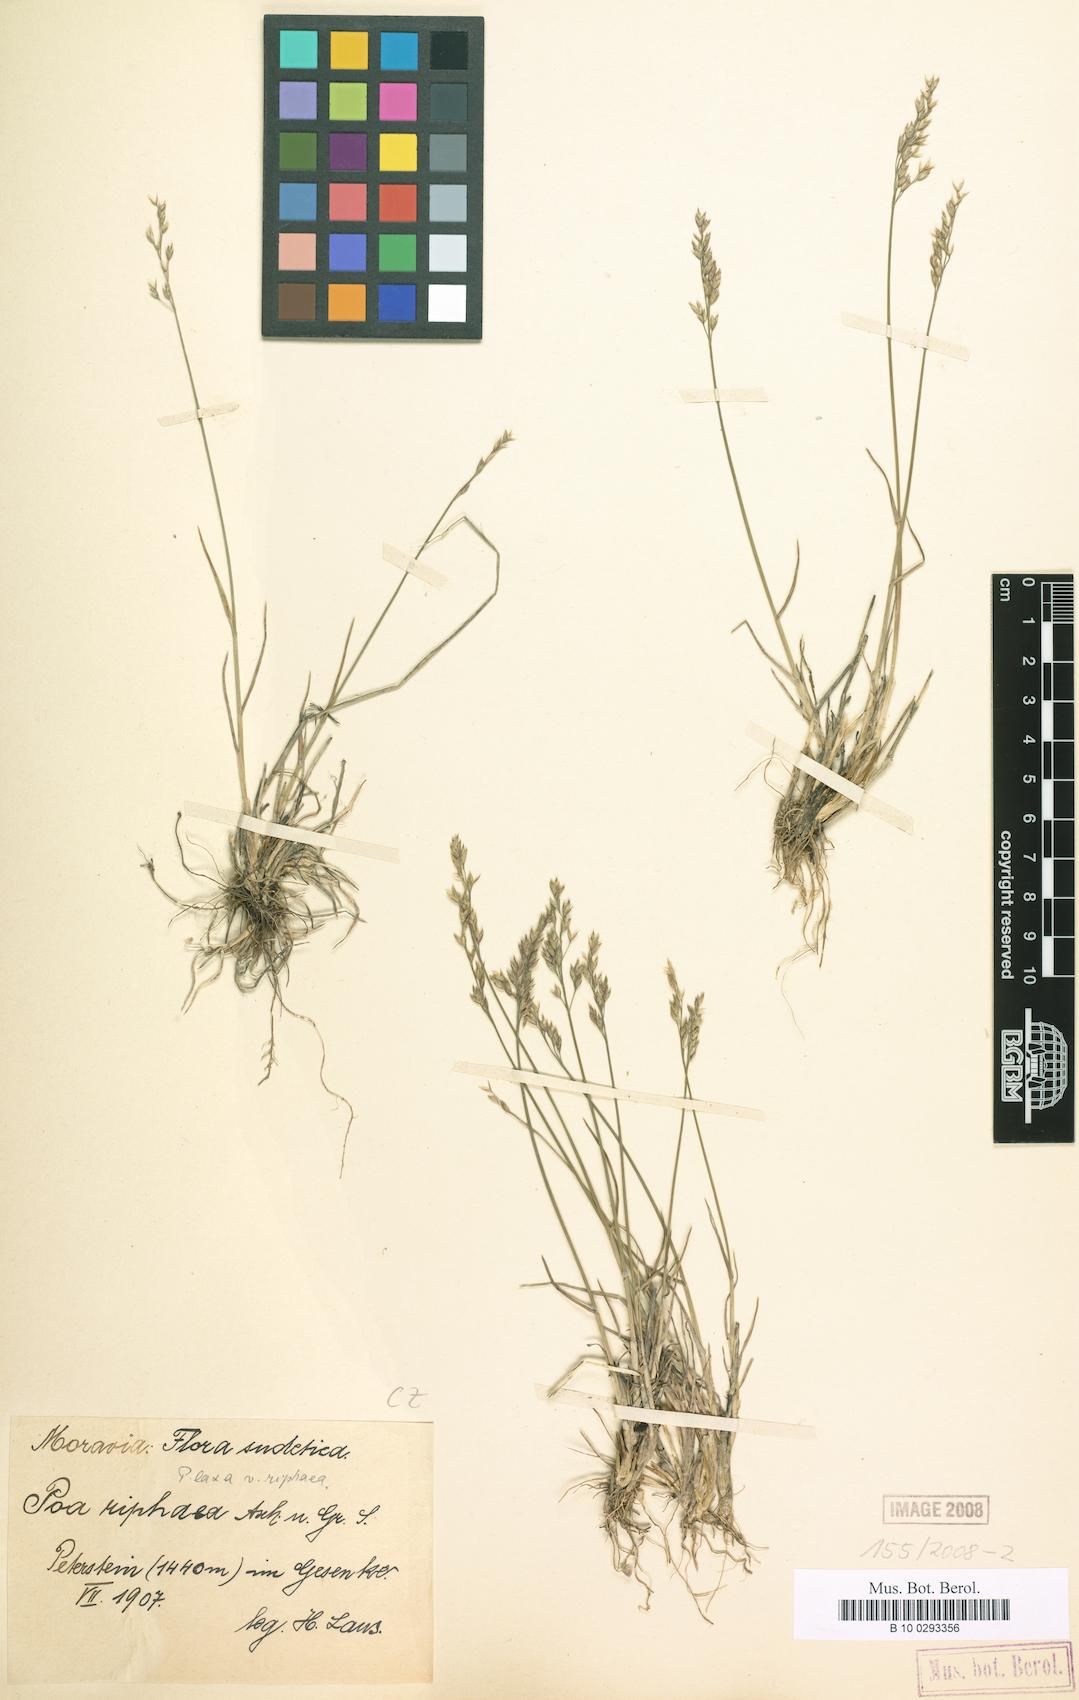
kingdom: Plantae
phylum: Tracheophyta
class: Liliopsida
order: Poales
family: Poaceae
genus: Poa
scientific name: Poa glauca
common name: Glaucous bluegrass
